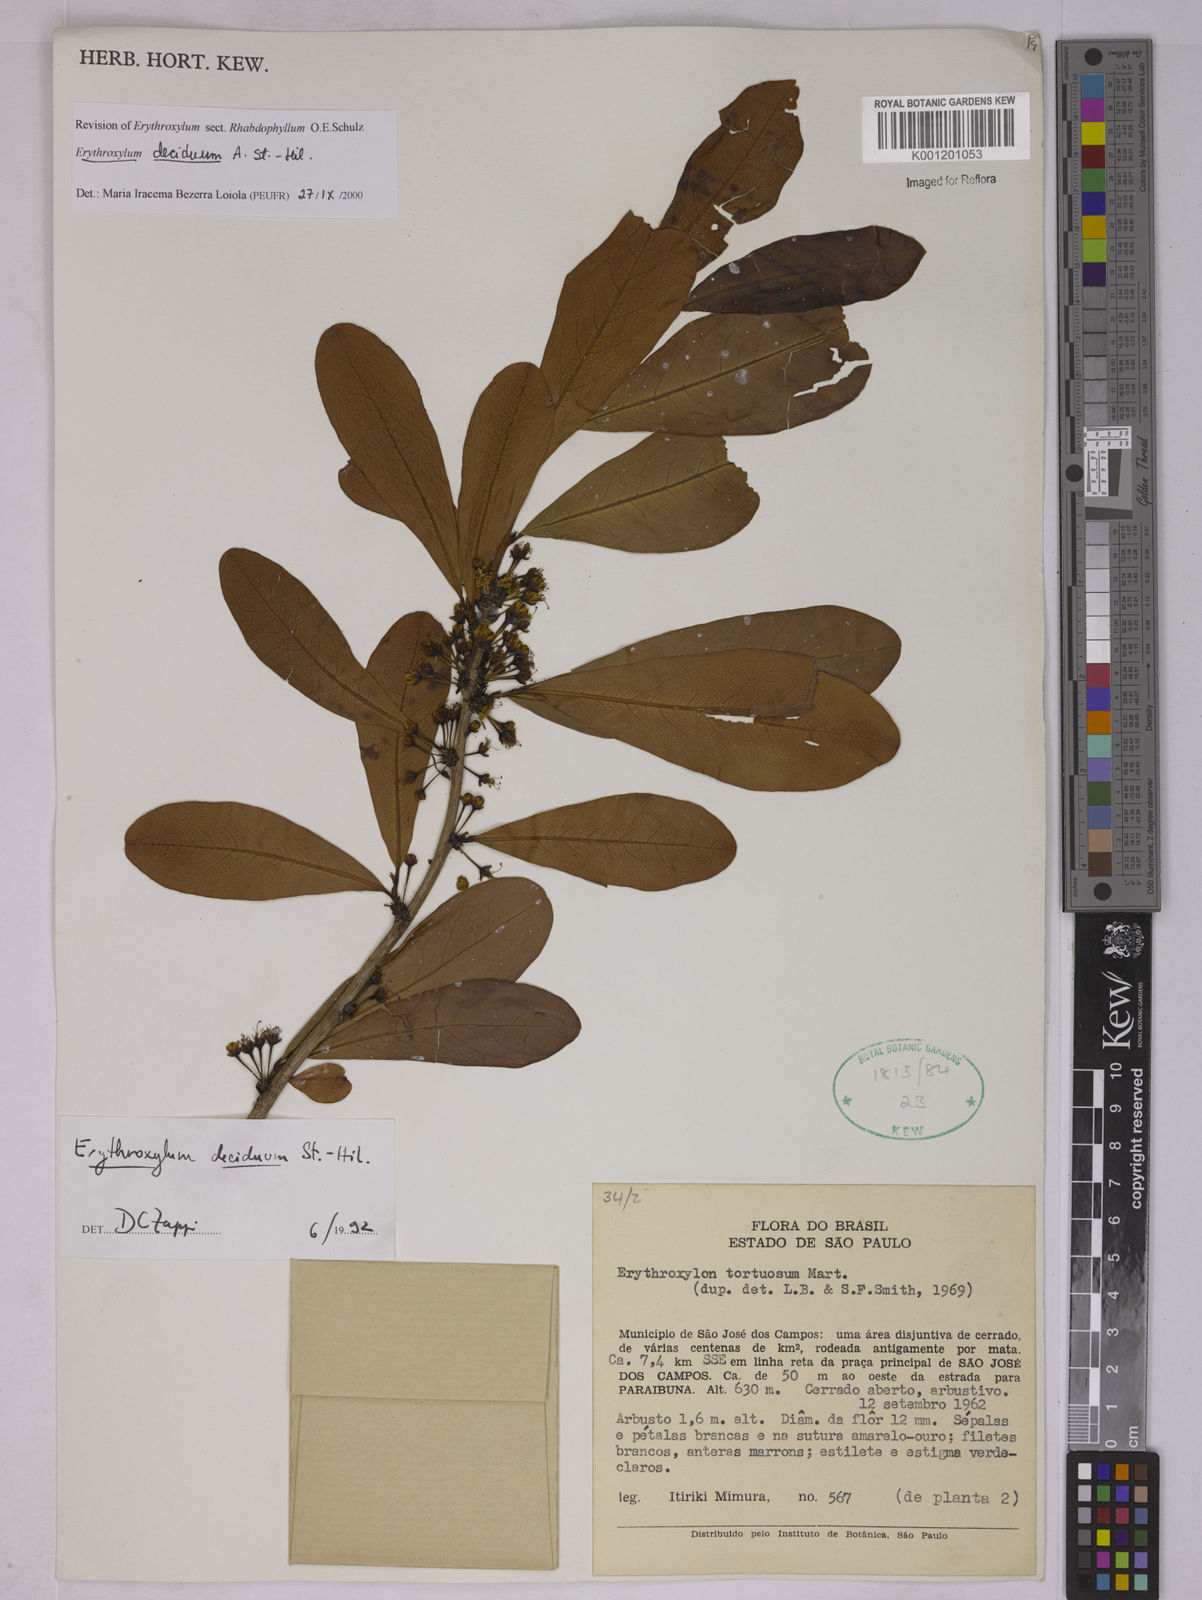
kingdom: Plantae
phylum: Tracheophyta
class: Magnoliopsida
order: Malpighiales
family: Erythroxylaceae
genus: Erythroxylum
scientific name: Erythroxylum deciduum
